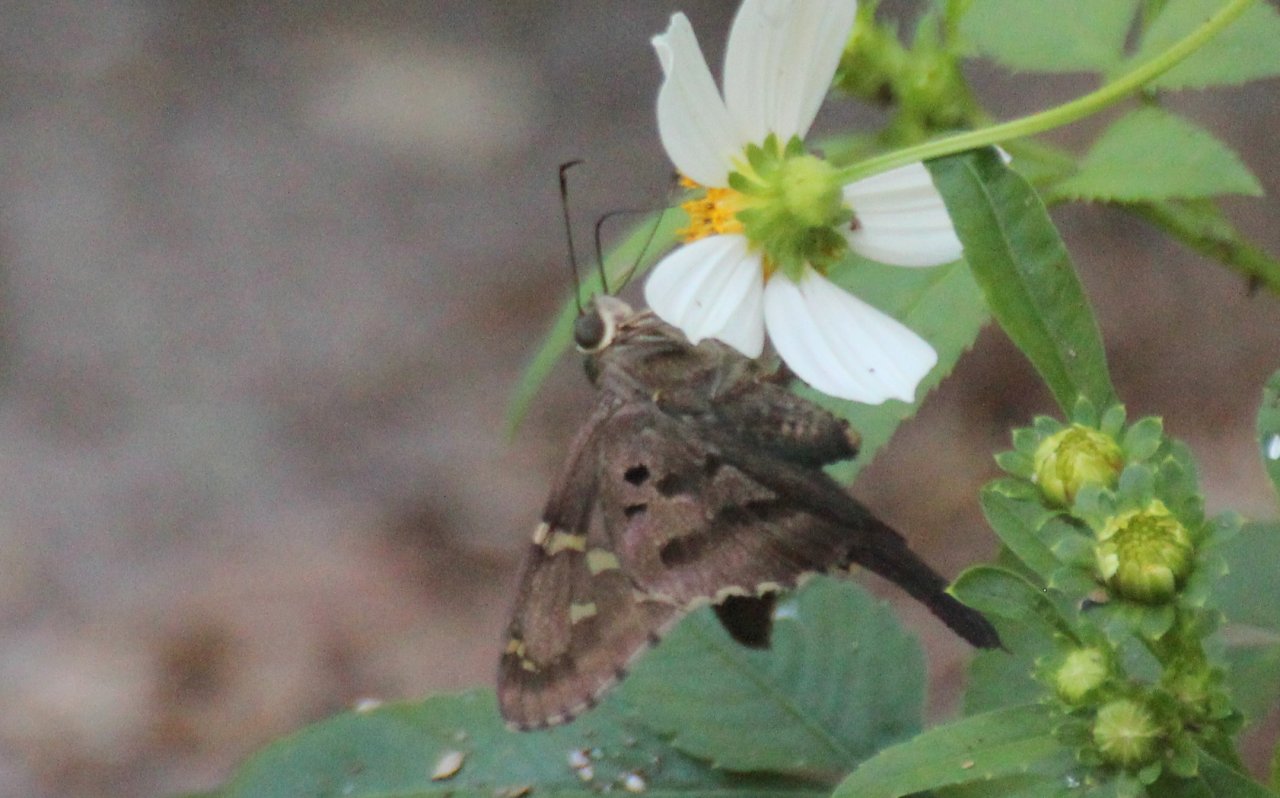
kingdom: Animalia
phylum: Arthropoda
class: Insecta
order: Lepidoptera
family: Hesperiidae
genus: Autochton
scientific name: Autochton
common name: Southern Cloudywing
